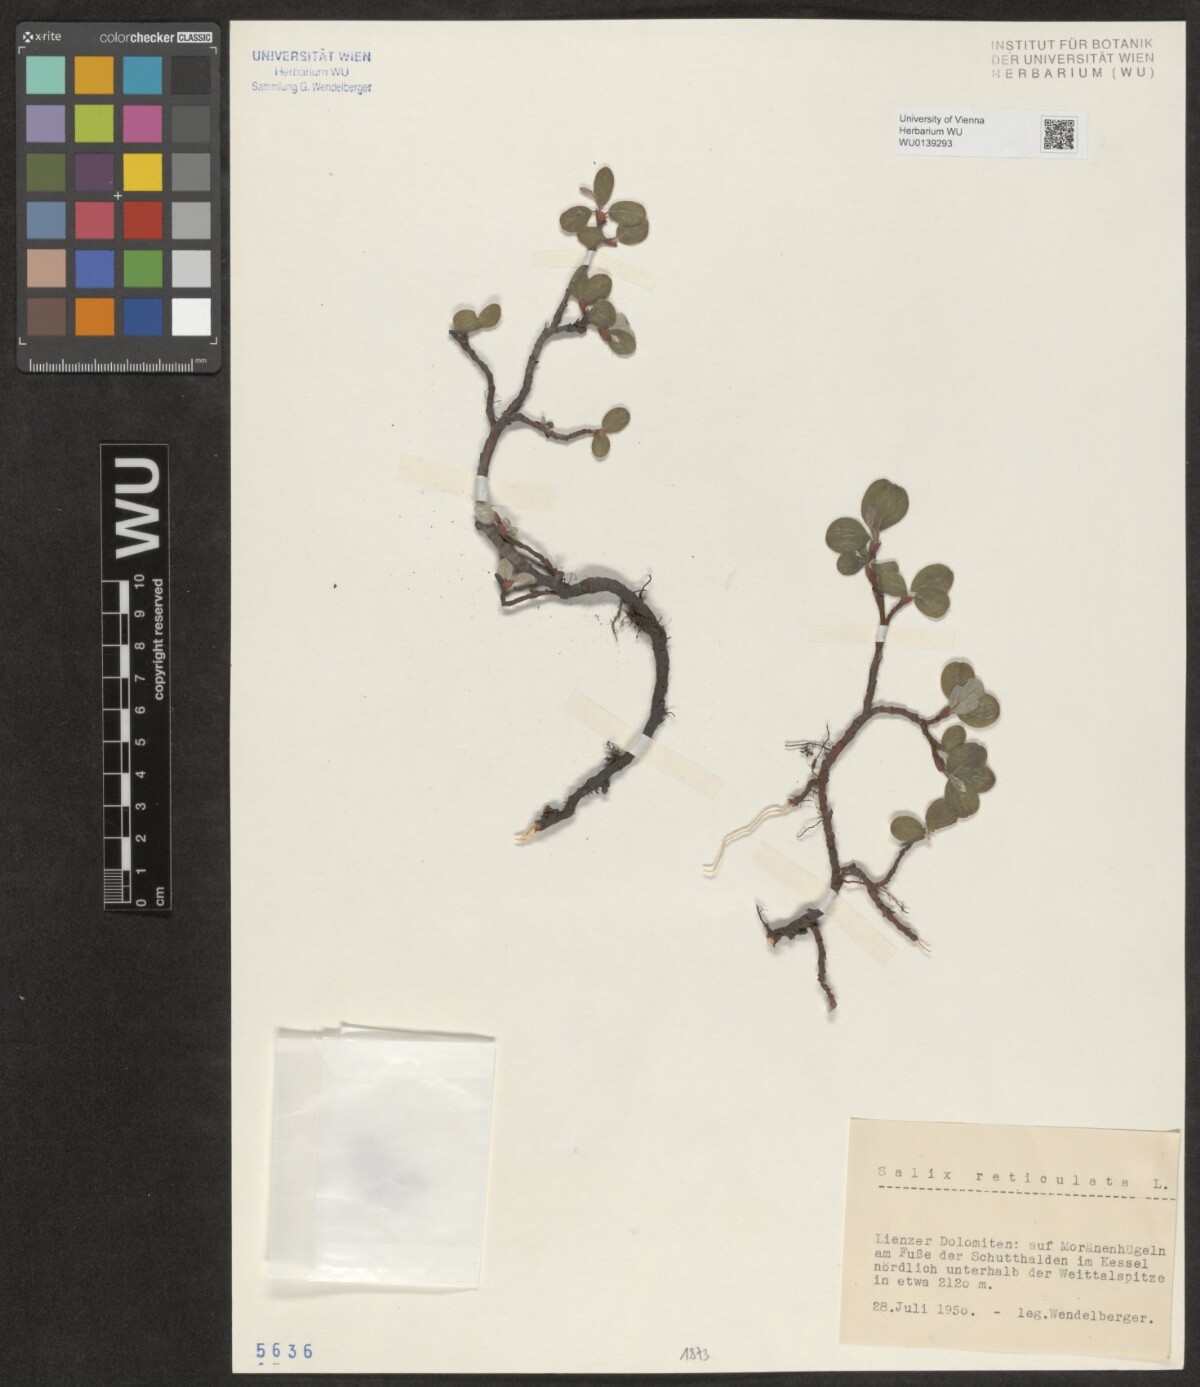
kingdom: Plantae
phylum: Tracheophyta
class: Magnoliopsida
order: Malpighiales
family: Salicaceae
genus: Salix
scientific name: Salix reticulata
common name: Net-leaved willow
